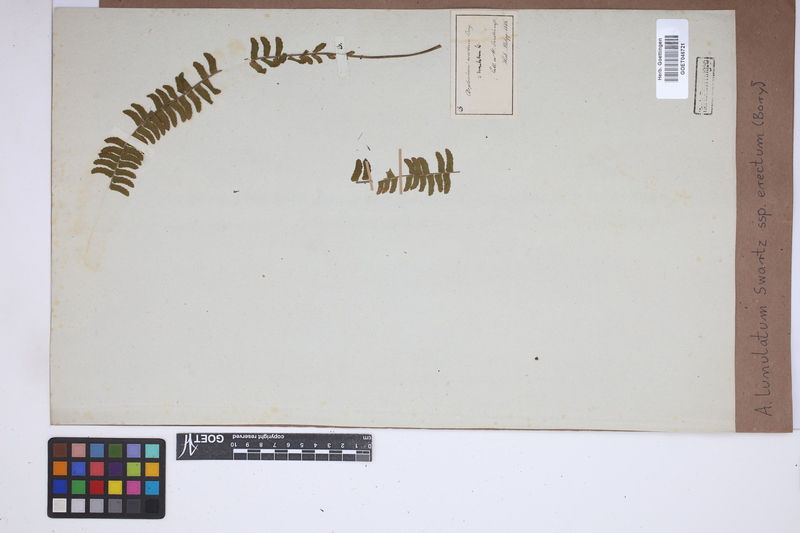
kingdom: Plantae
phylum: Tracheophyta
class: Polypodiopsida
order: Polypodiales
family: Aspleniaceae
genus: Asplenium
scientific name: Asplenium erectum
